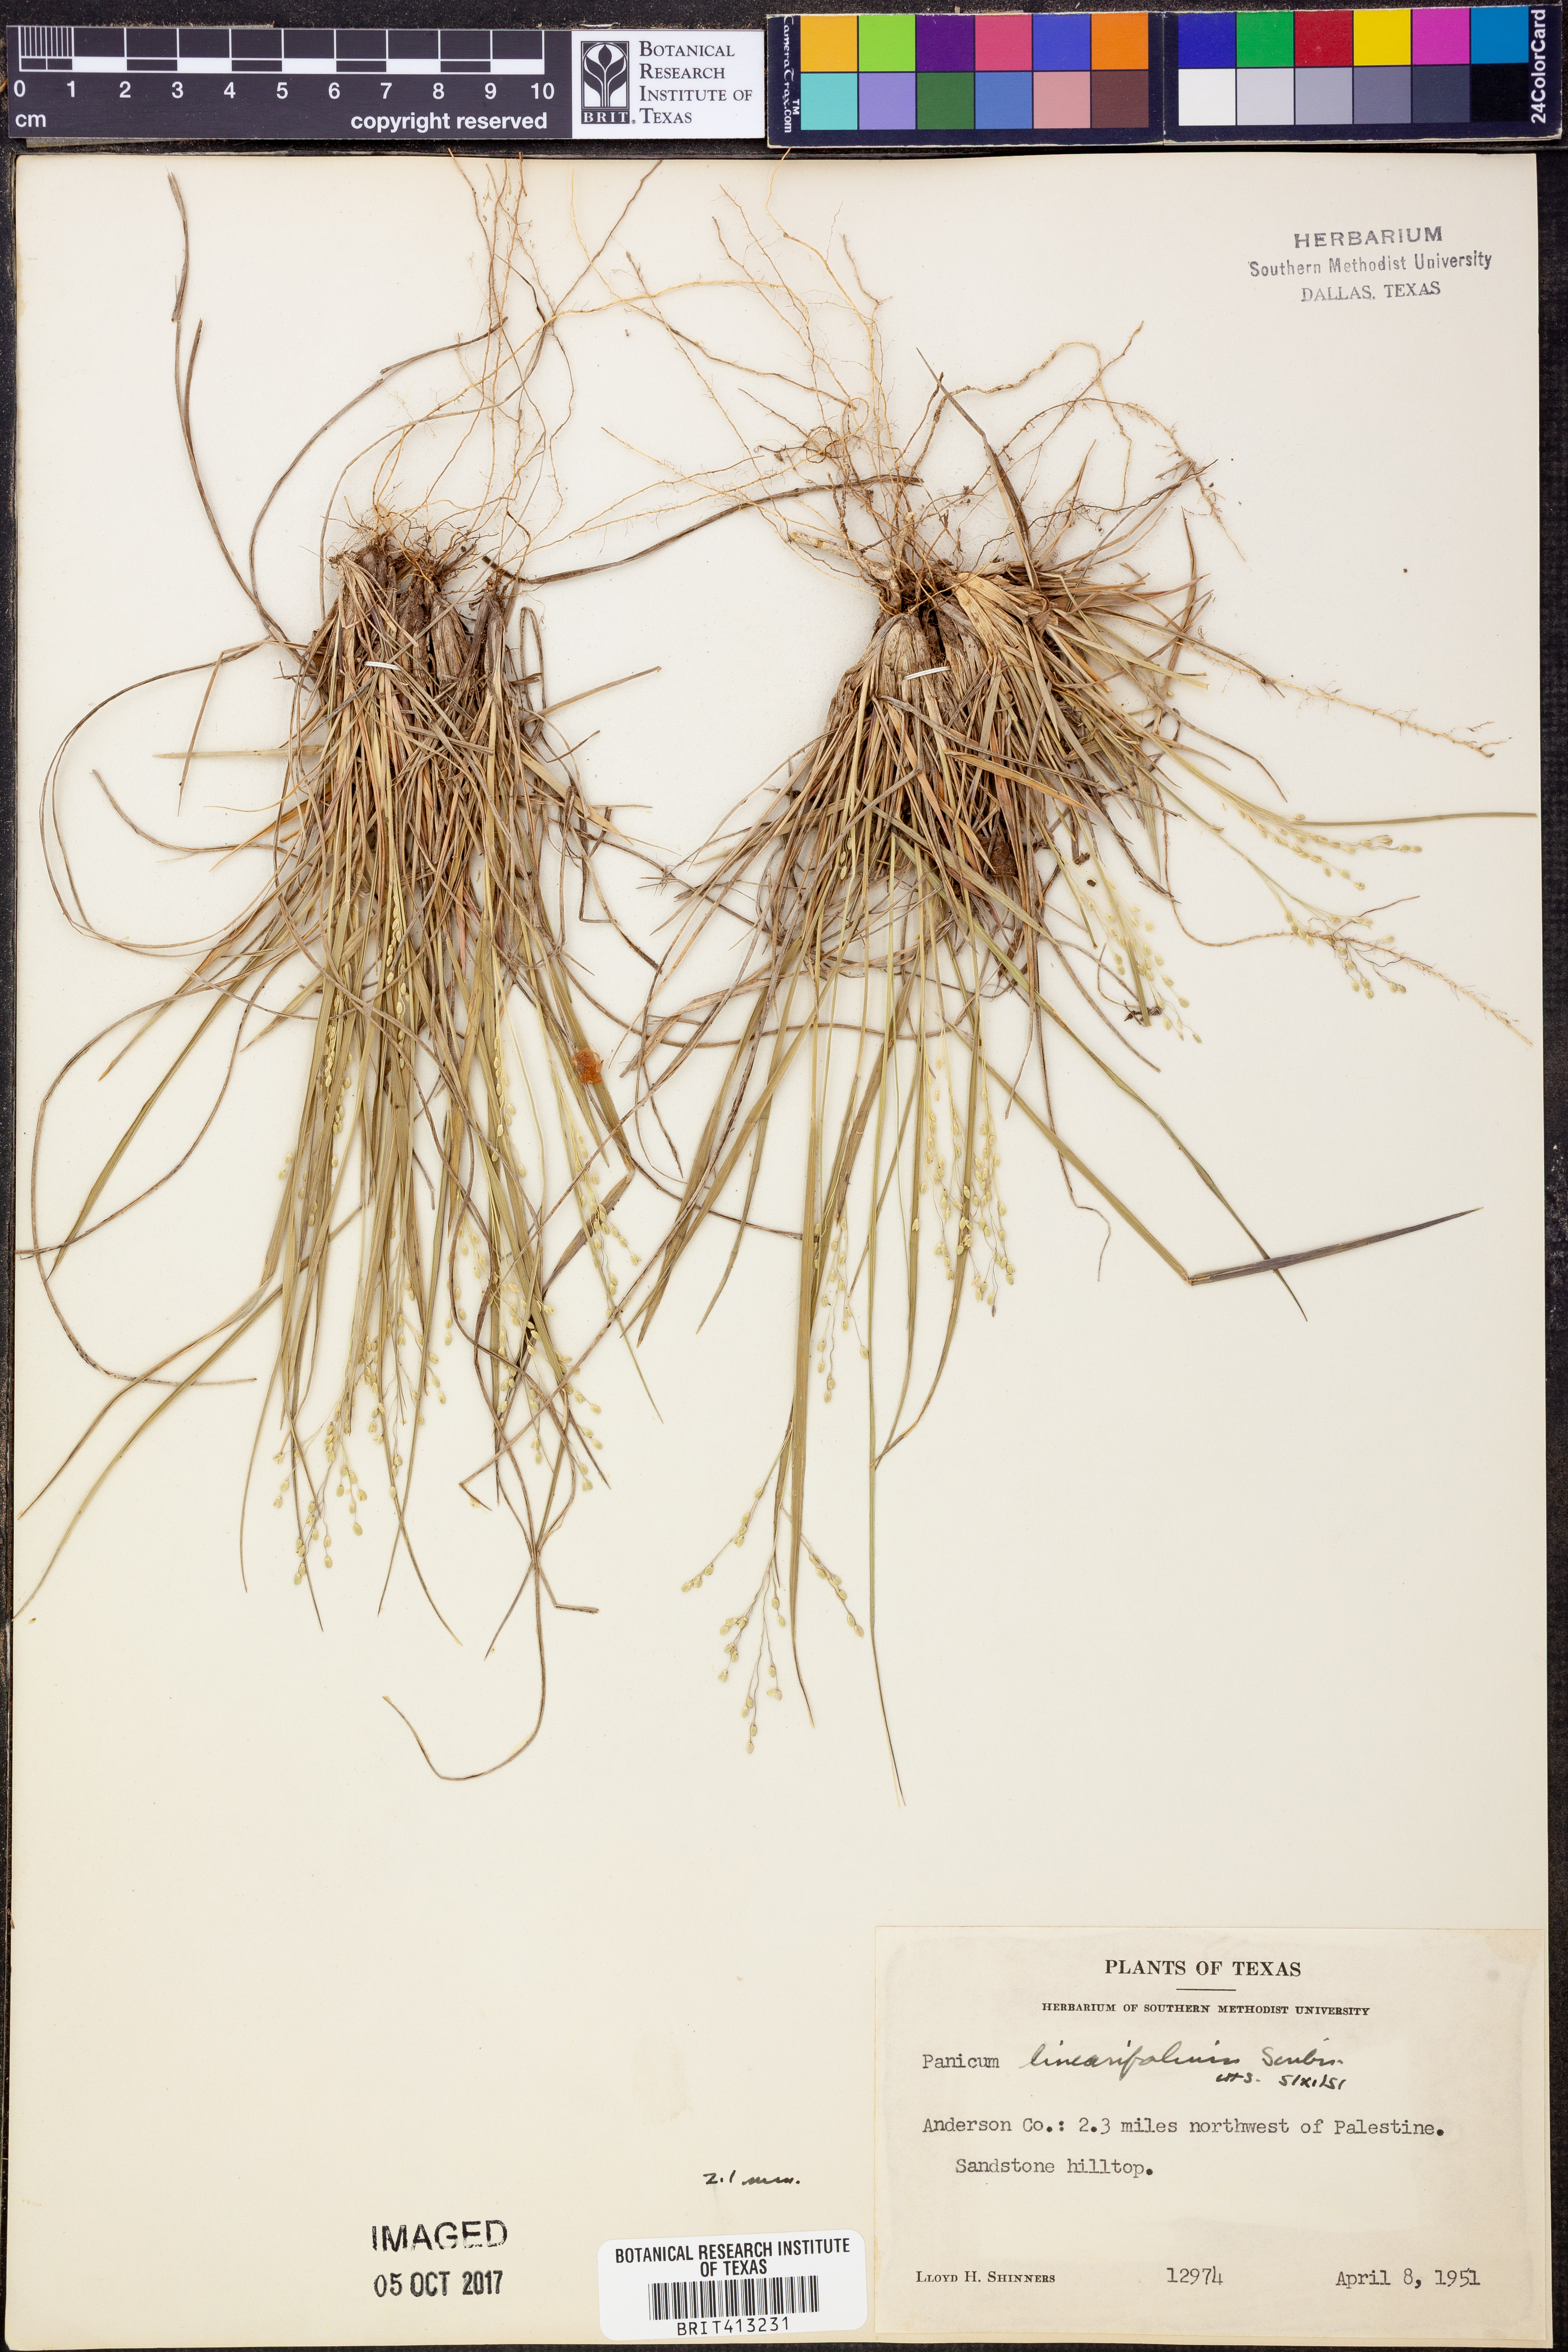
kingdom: Plantae
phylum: Tracheophyta
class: Liliopsida
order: Poales
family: Poaceae
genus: Dichanthelium
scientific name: Dichanthelium linearifolium
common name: Linear-leaved panicgrass
